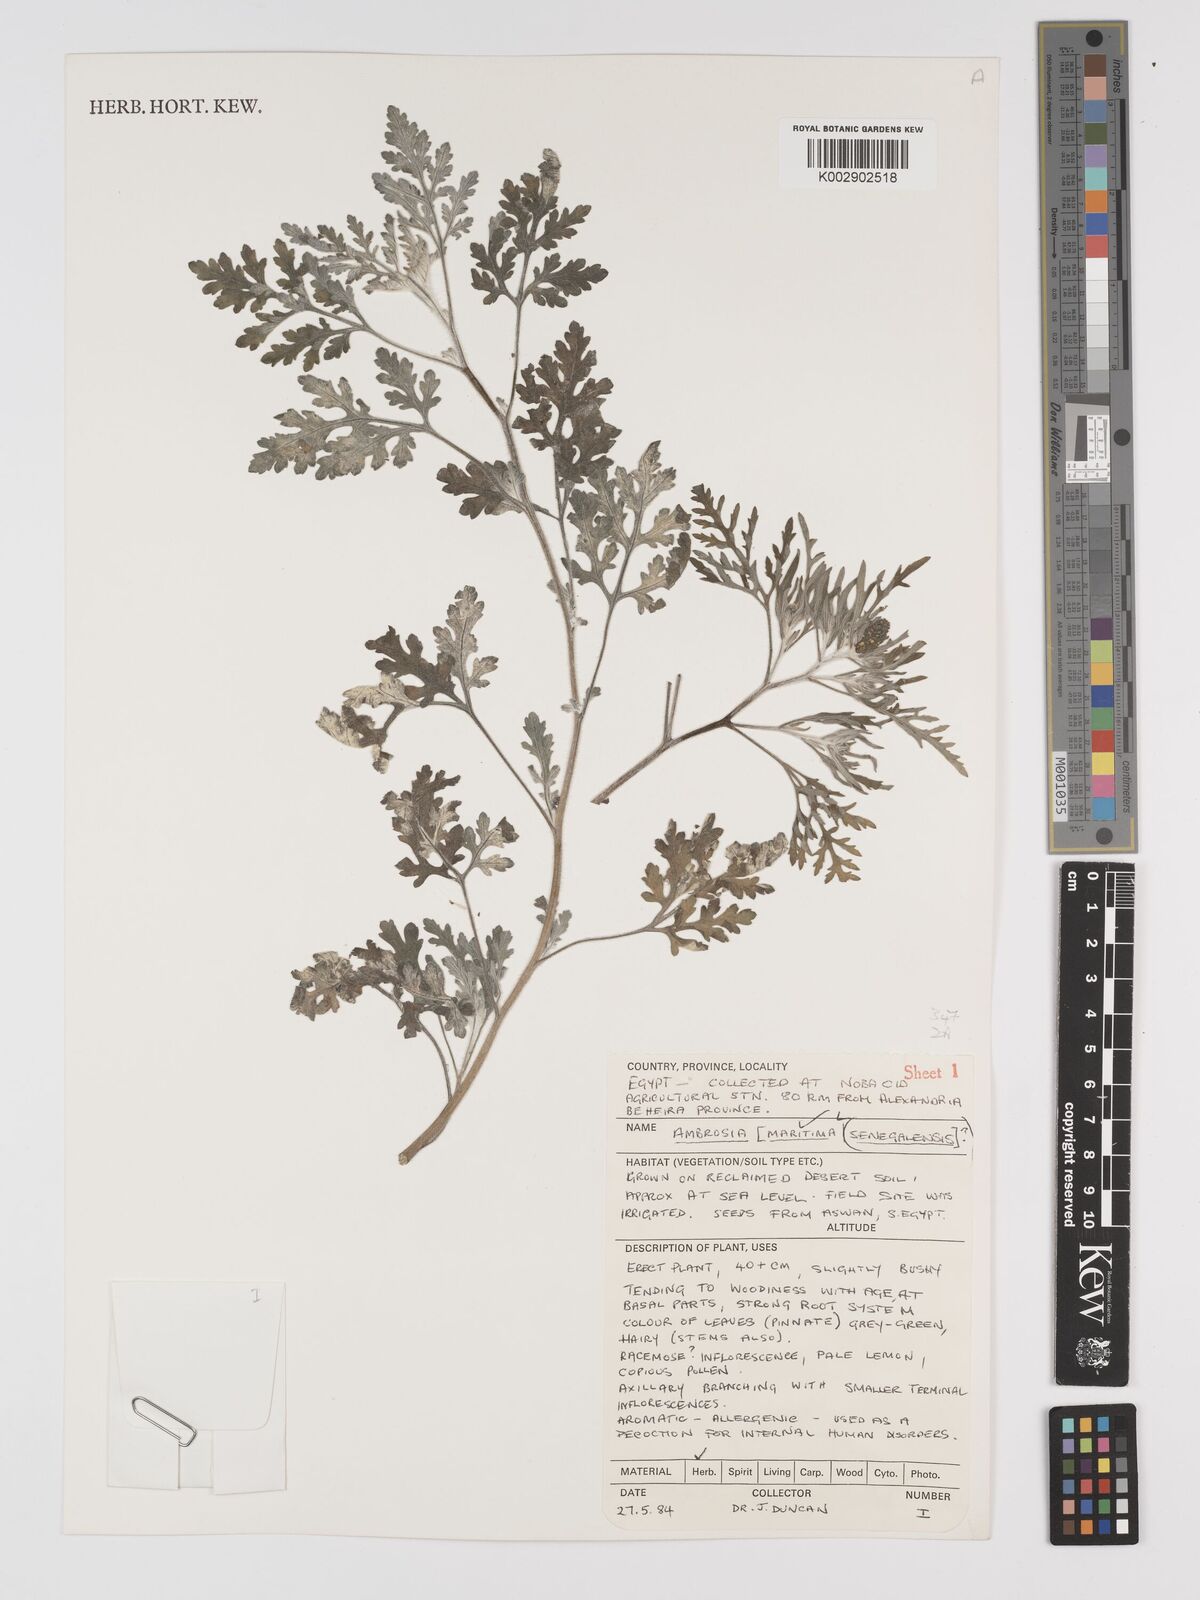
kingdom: Plantae
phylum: Tracheophyta
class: Magnoliopsida
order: Asterales
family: Asteraceae
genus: Ambrosia
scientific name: Ambrosia maritima
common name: Sea ambrosia
